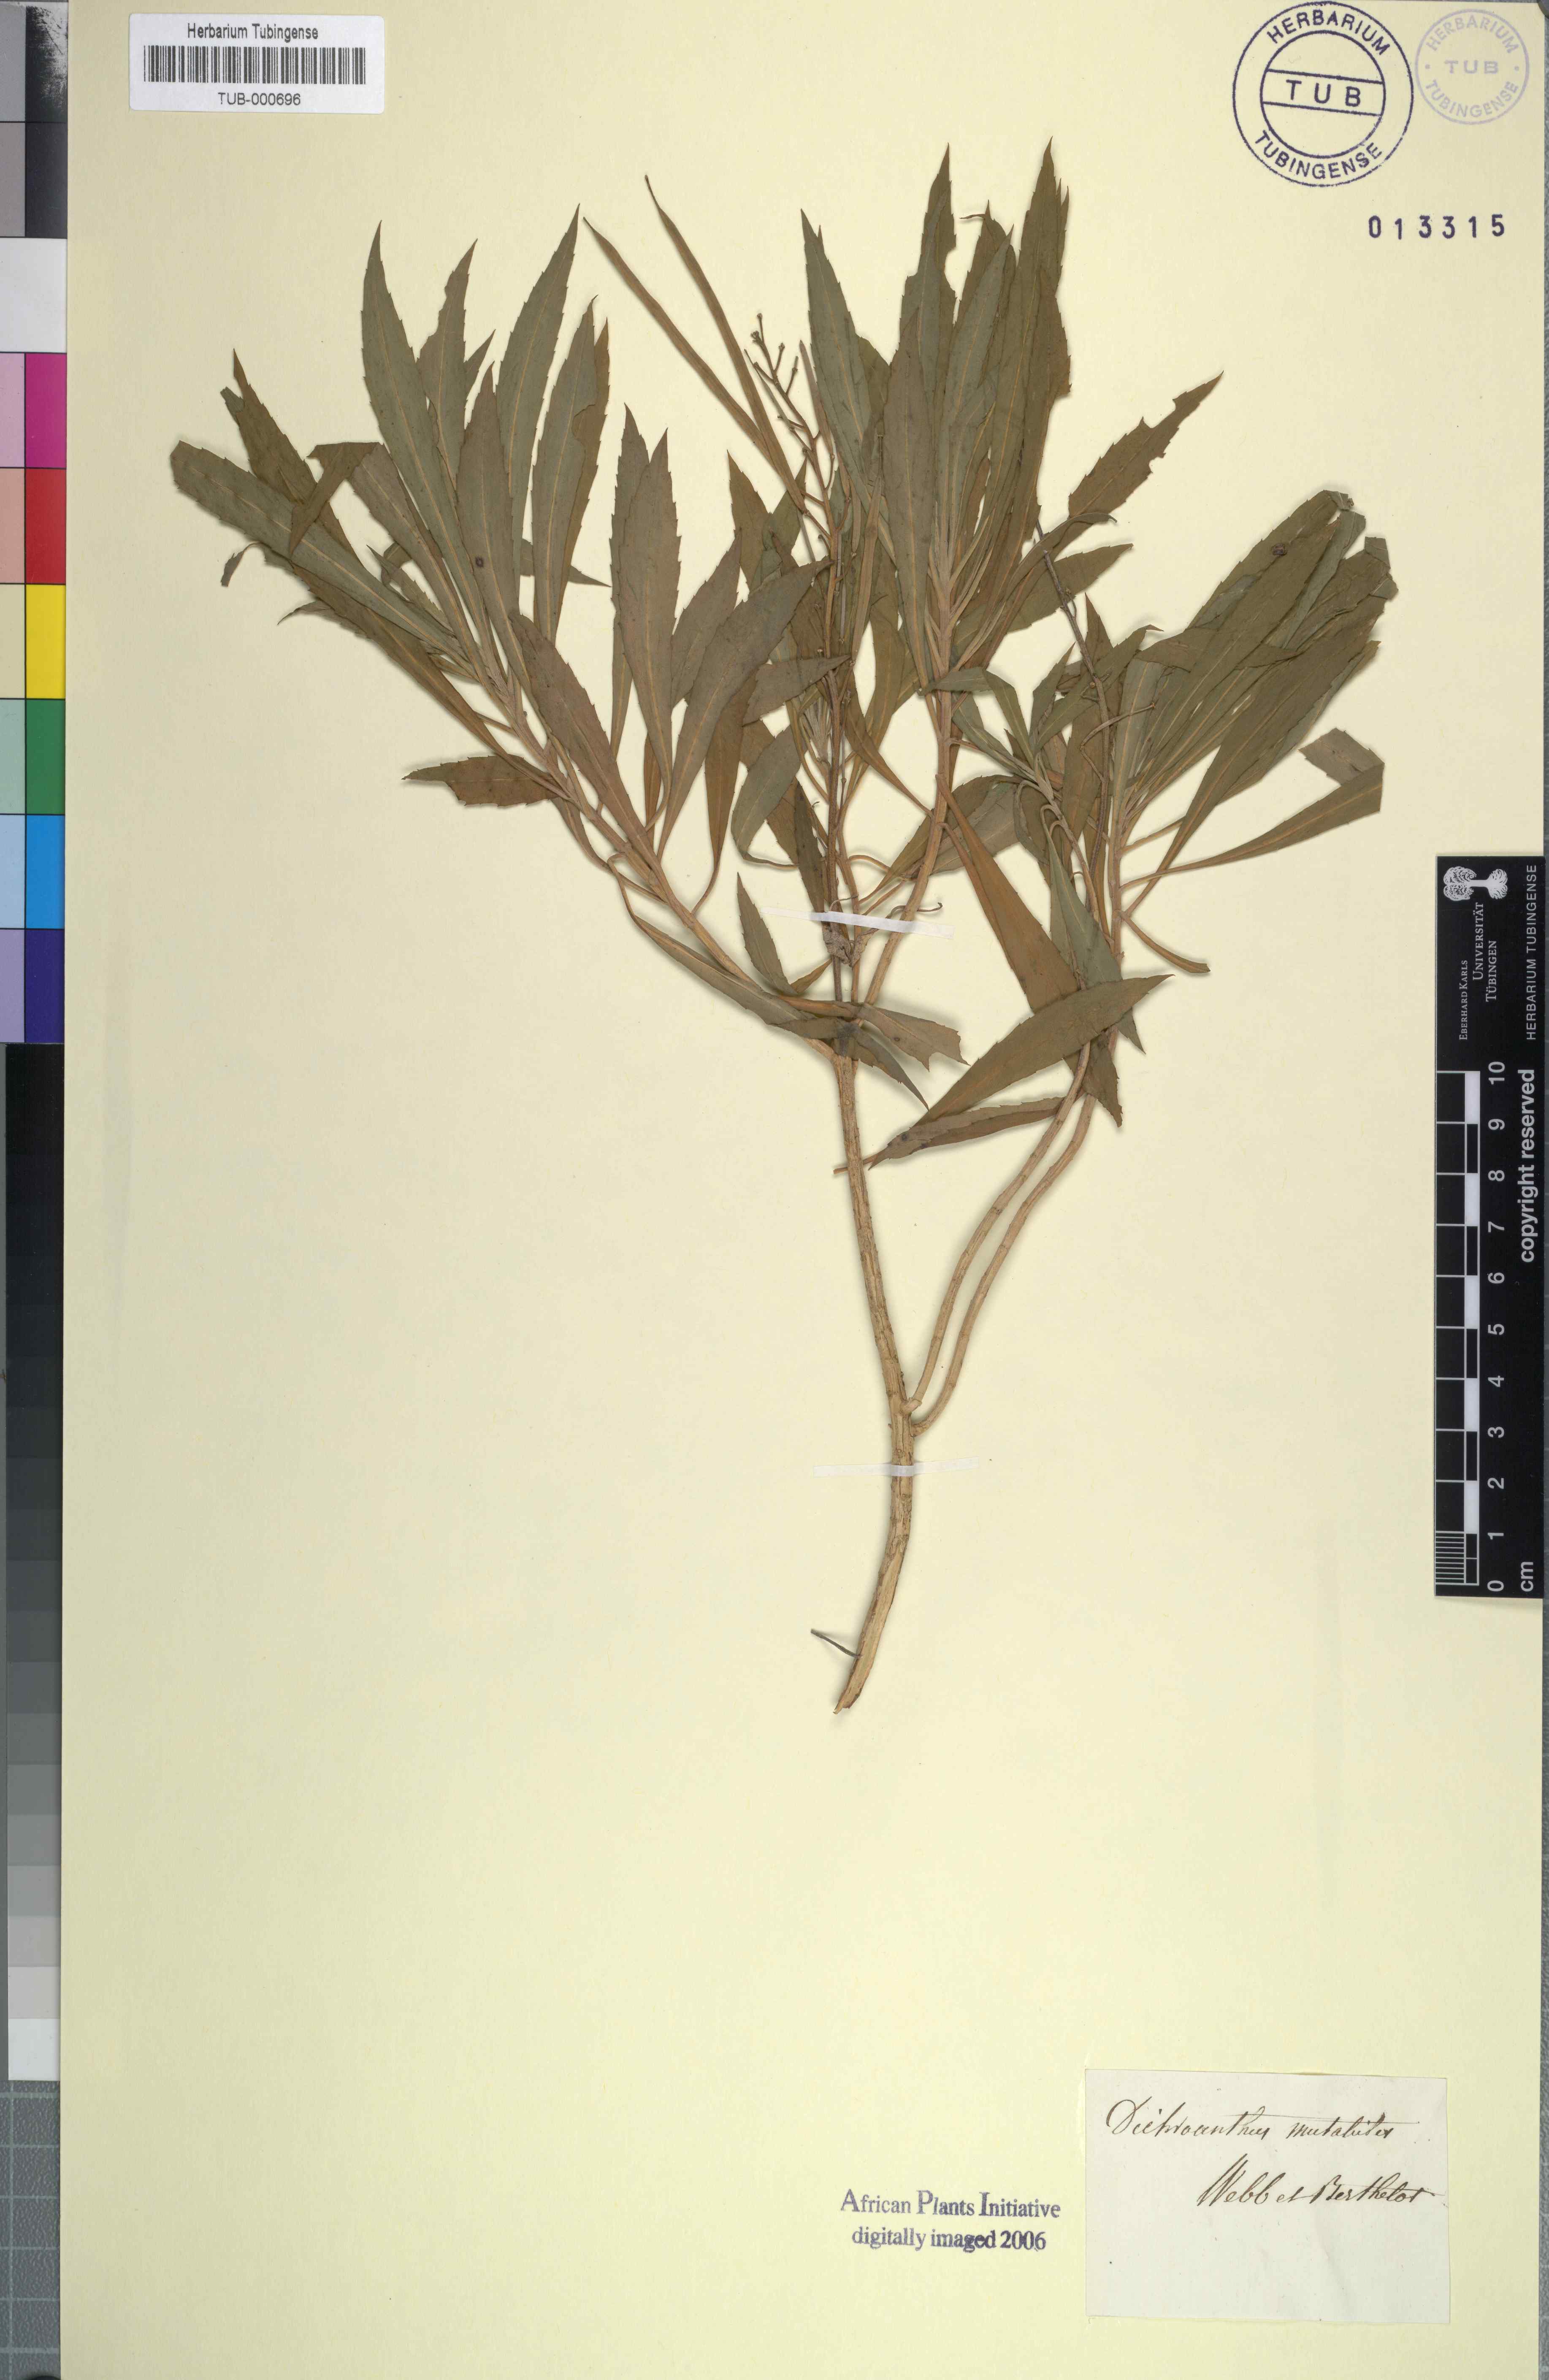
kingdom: Plantae
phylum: Tracheophyta
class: Magnoliopsida
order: Brassicales
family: Brassicaceae
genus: Erysimum
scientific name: Erysimum bicolor
